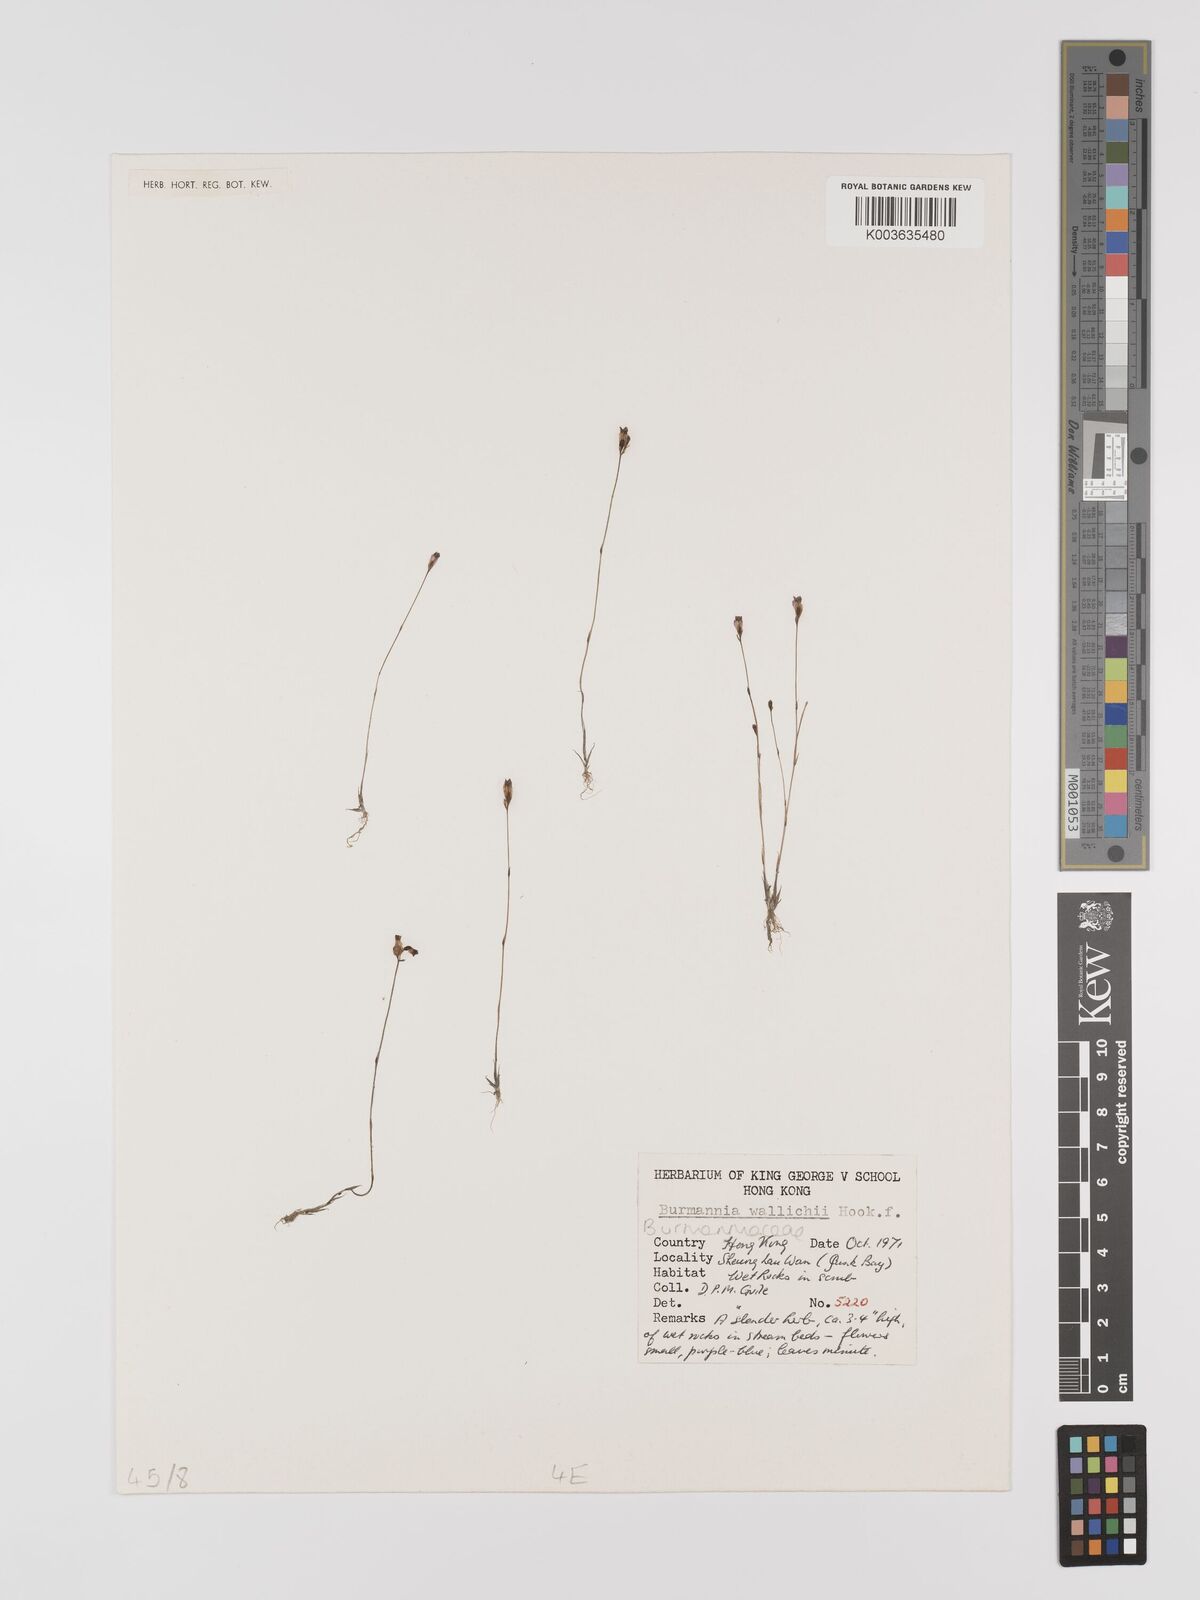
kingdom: Plantae
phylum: Tracheophyta
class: Liliopsida
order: Dioscoreales
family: Burmanniaceae
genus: Burmannia
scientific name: Burmannia wallichii
